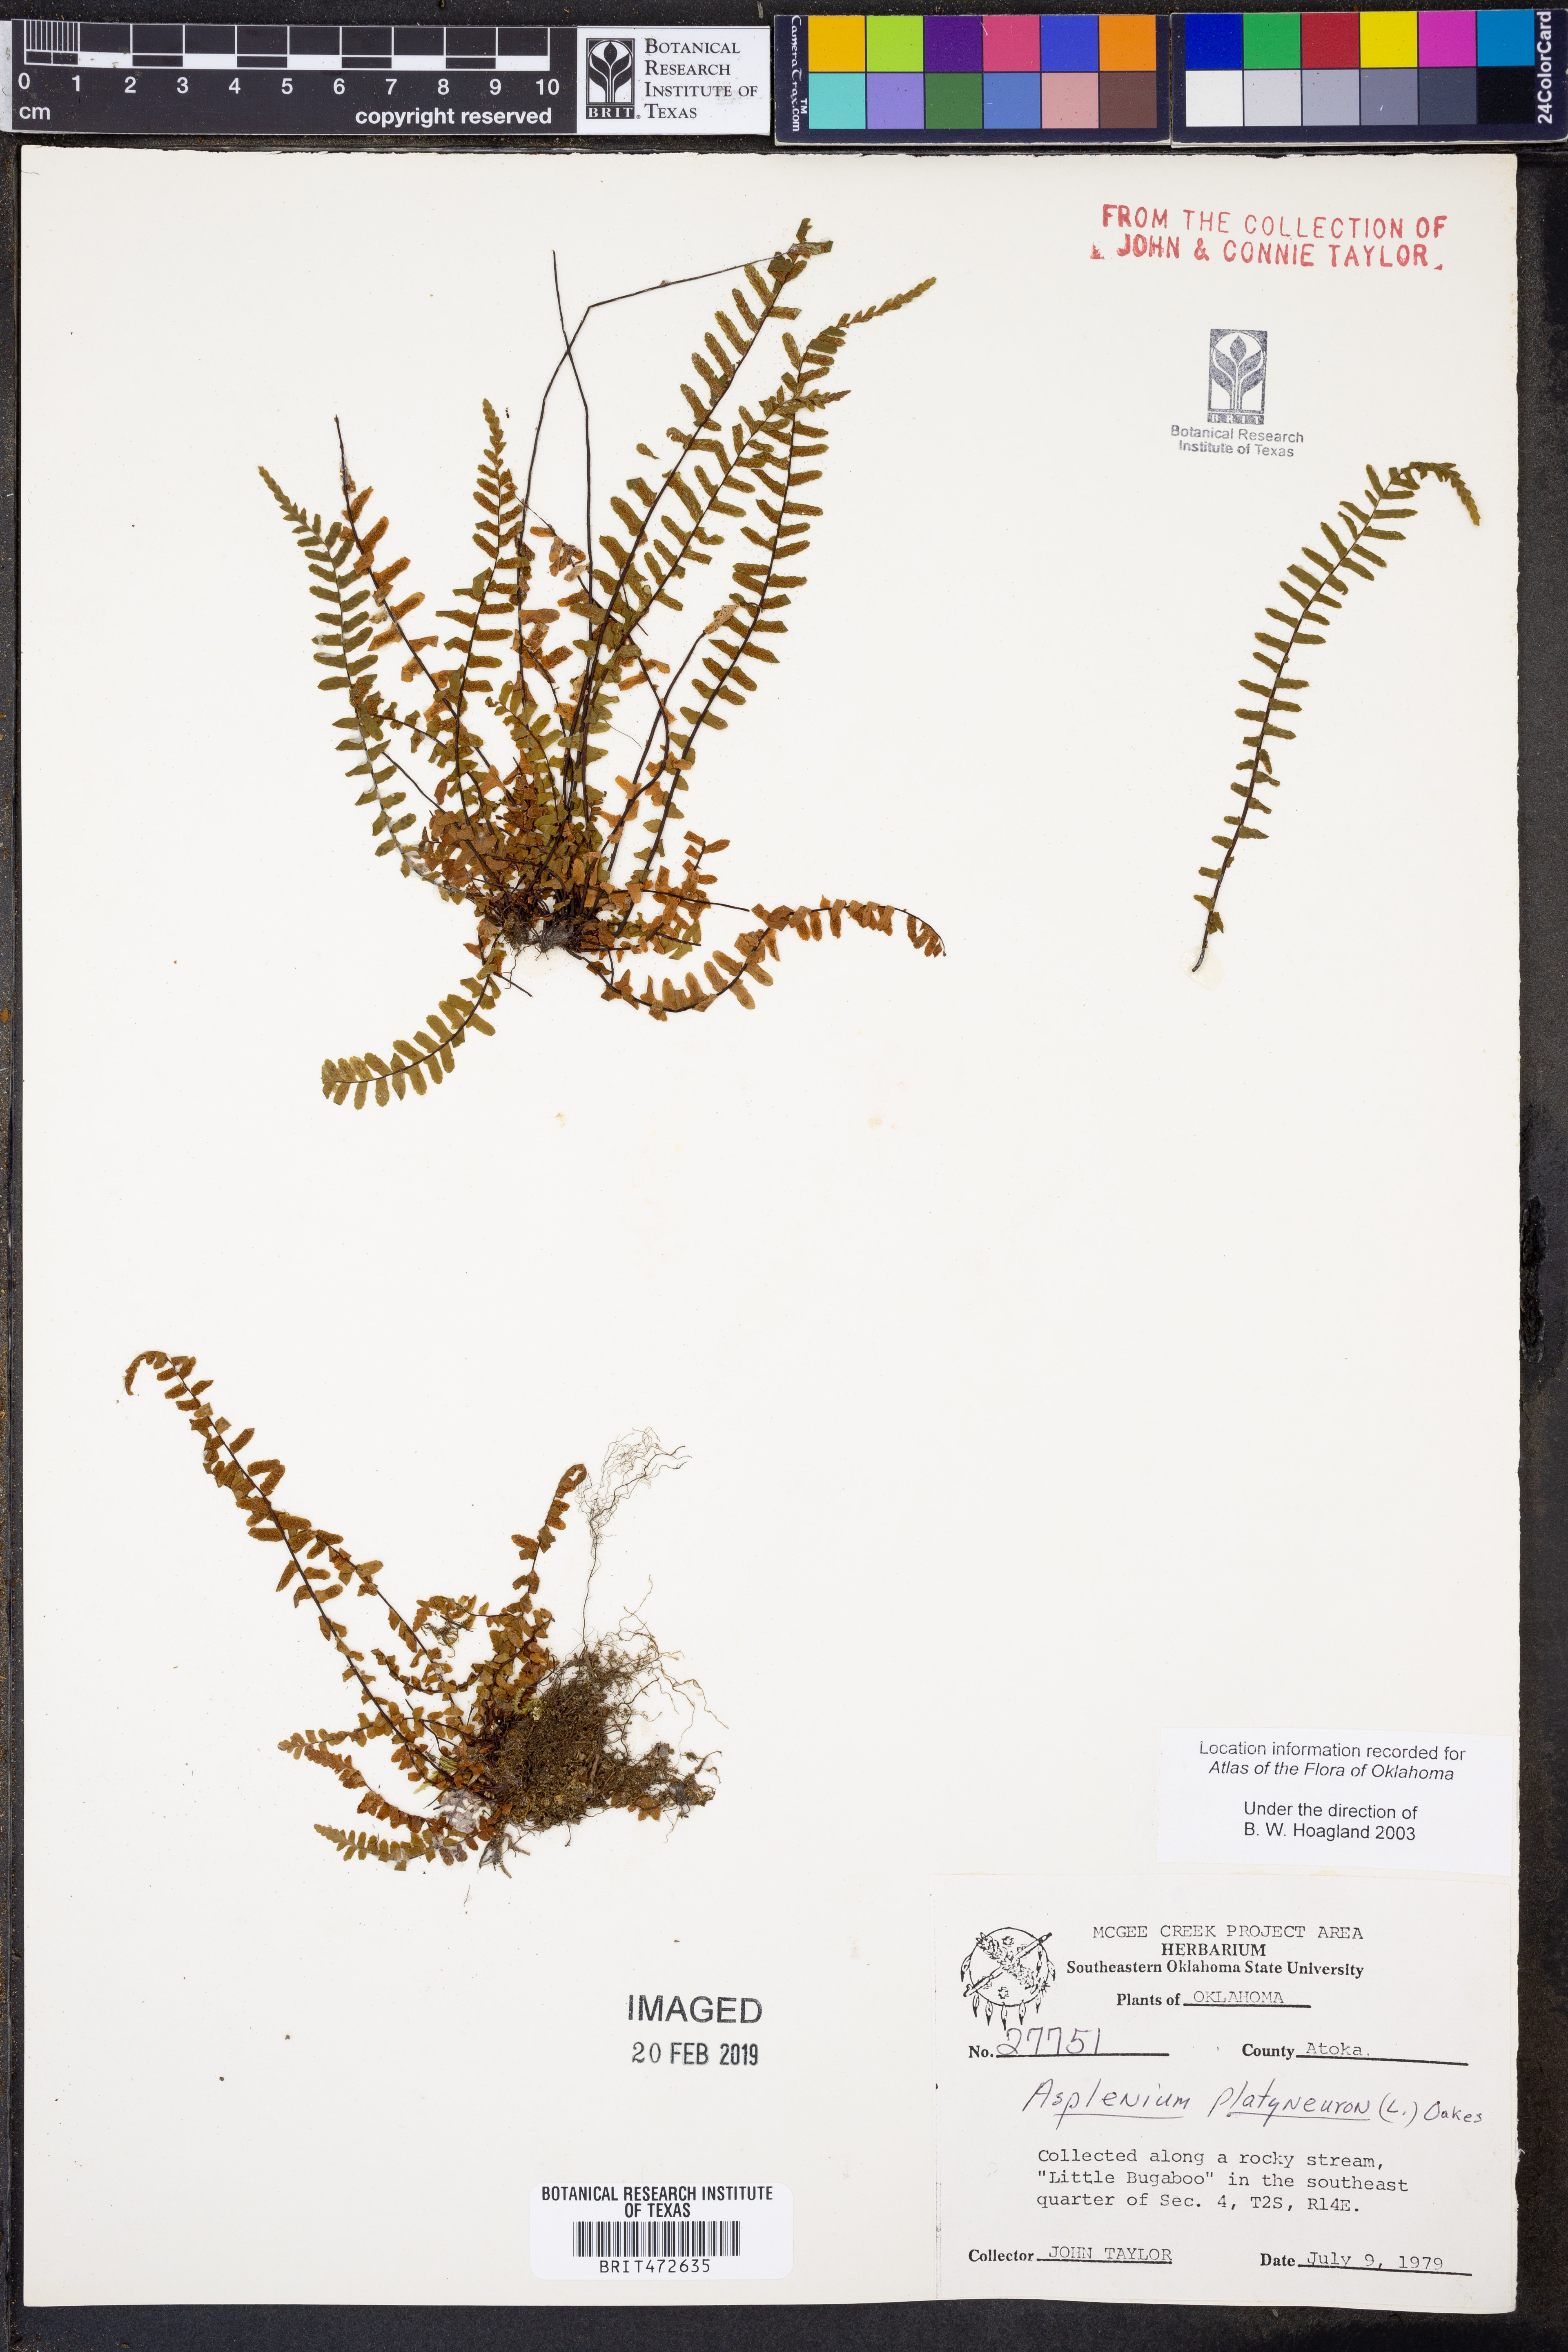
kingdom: Plantae
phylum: Tracheophyta
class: Polypodiopsida
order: Polypodiales
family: Aspleniaceae
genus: Asplenium
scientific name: Asplenium platyneuron
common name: Ebony spleenwort
